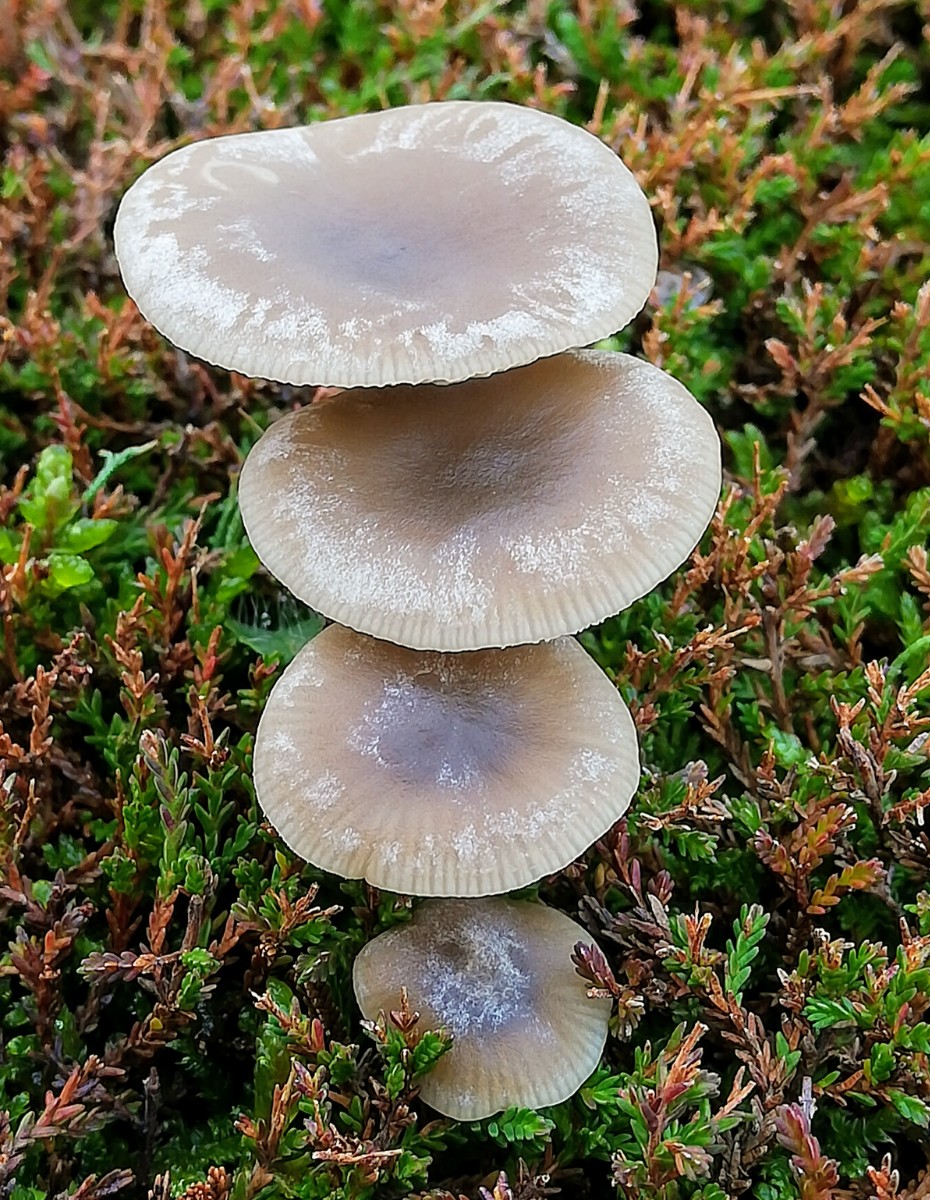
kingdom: Fungi
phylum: Basidiomycota
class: Agaricomycetes
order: Agaricales
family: Tricholomataceae
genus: Clitocybe
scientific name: Clitocybe vibecina
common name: randstribet tragthat
